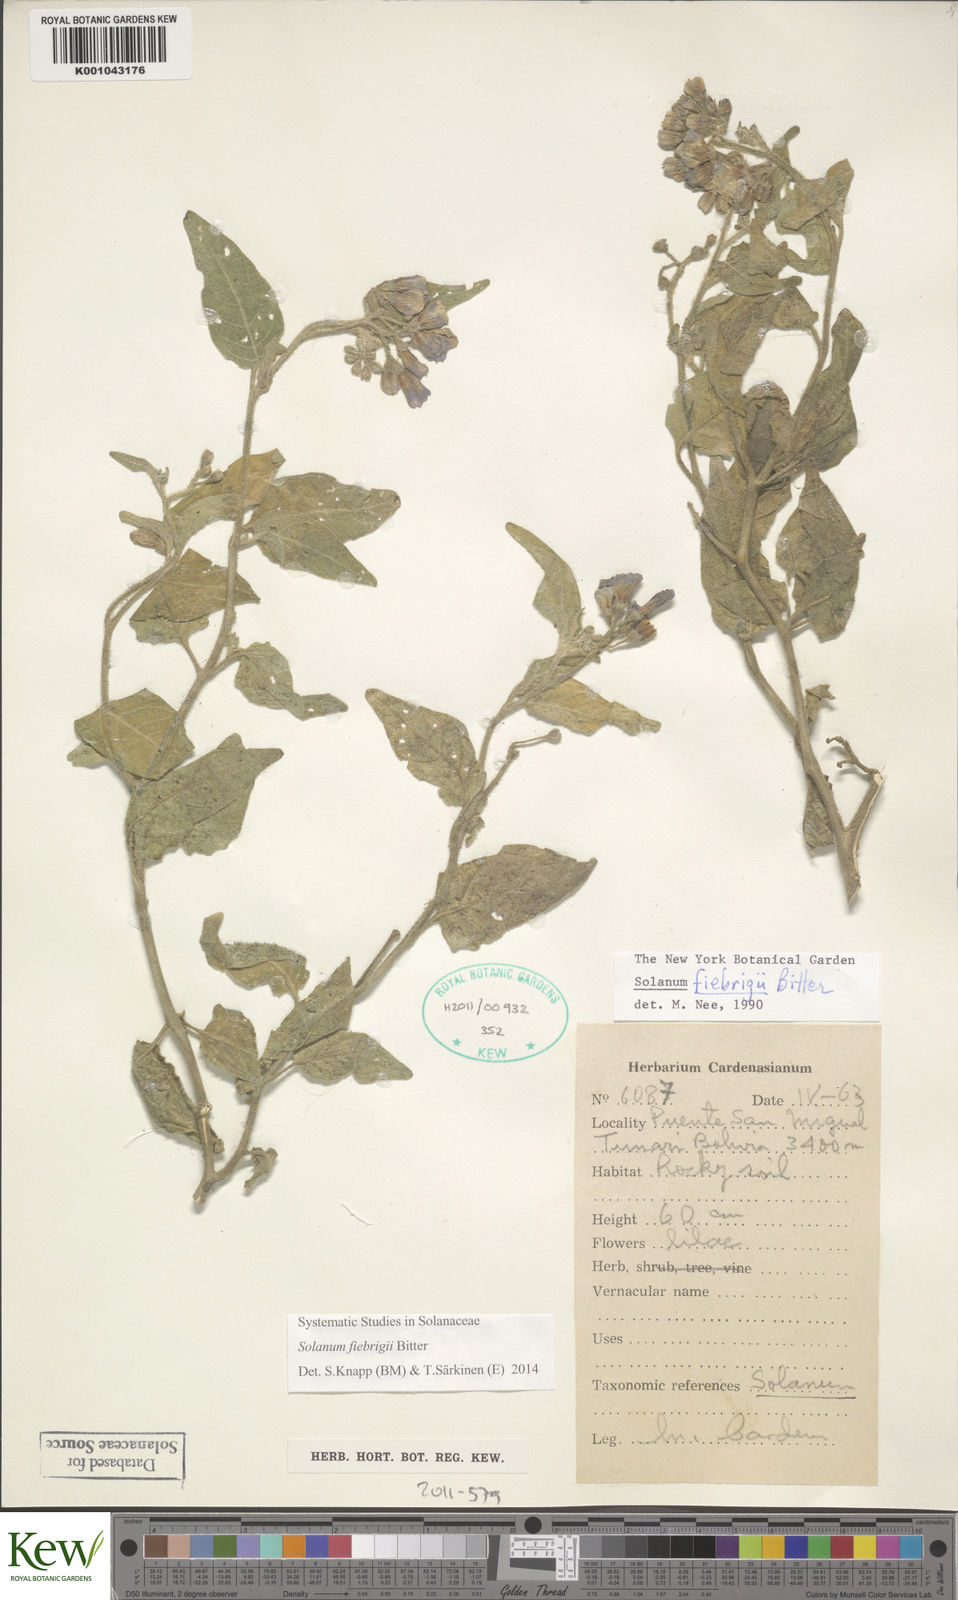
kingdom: Plantae
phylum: Tracheophyta
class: Magnoliopsida
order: Solanales
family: Solanaceae
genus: Solanum
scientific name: Solanum fiebrigii
